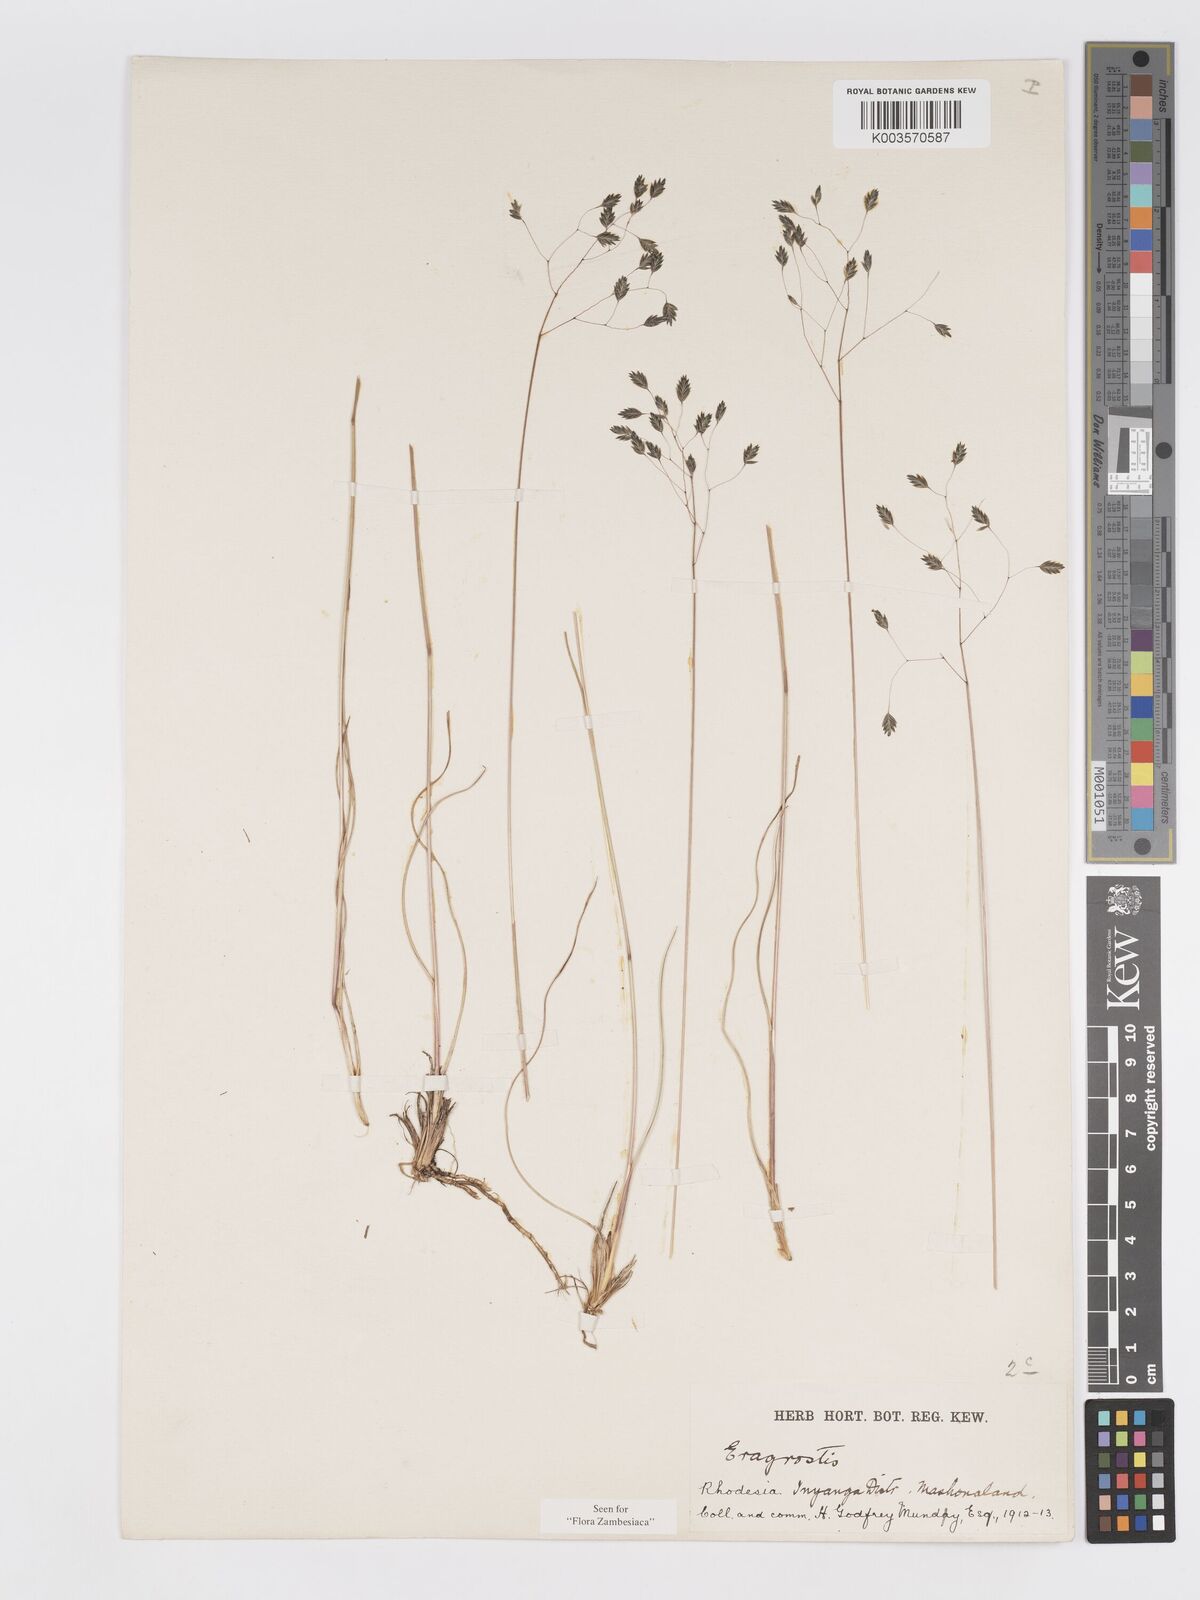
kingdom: Plantae
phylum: Tracheophyta
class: Liliopsida
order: Poales
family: Poaceae
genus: Eragrostis
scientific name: Eragrostis paradoxa
